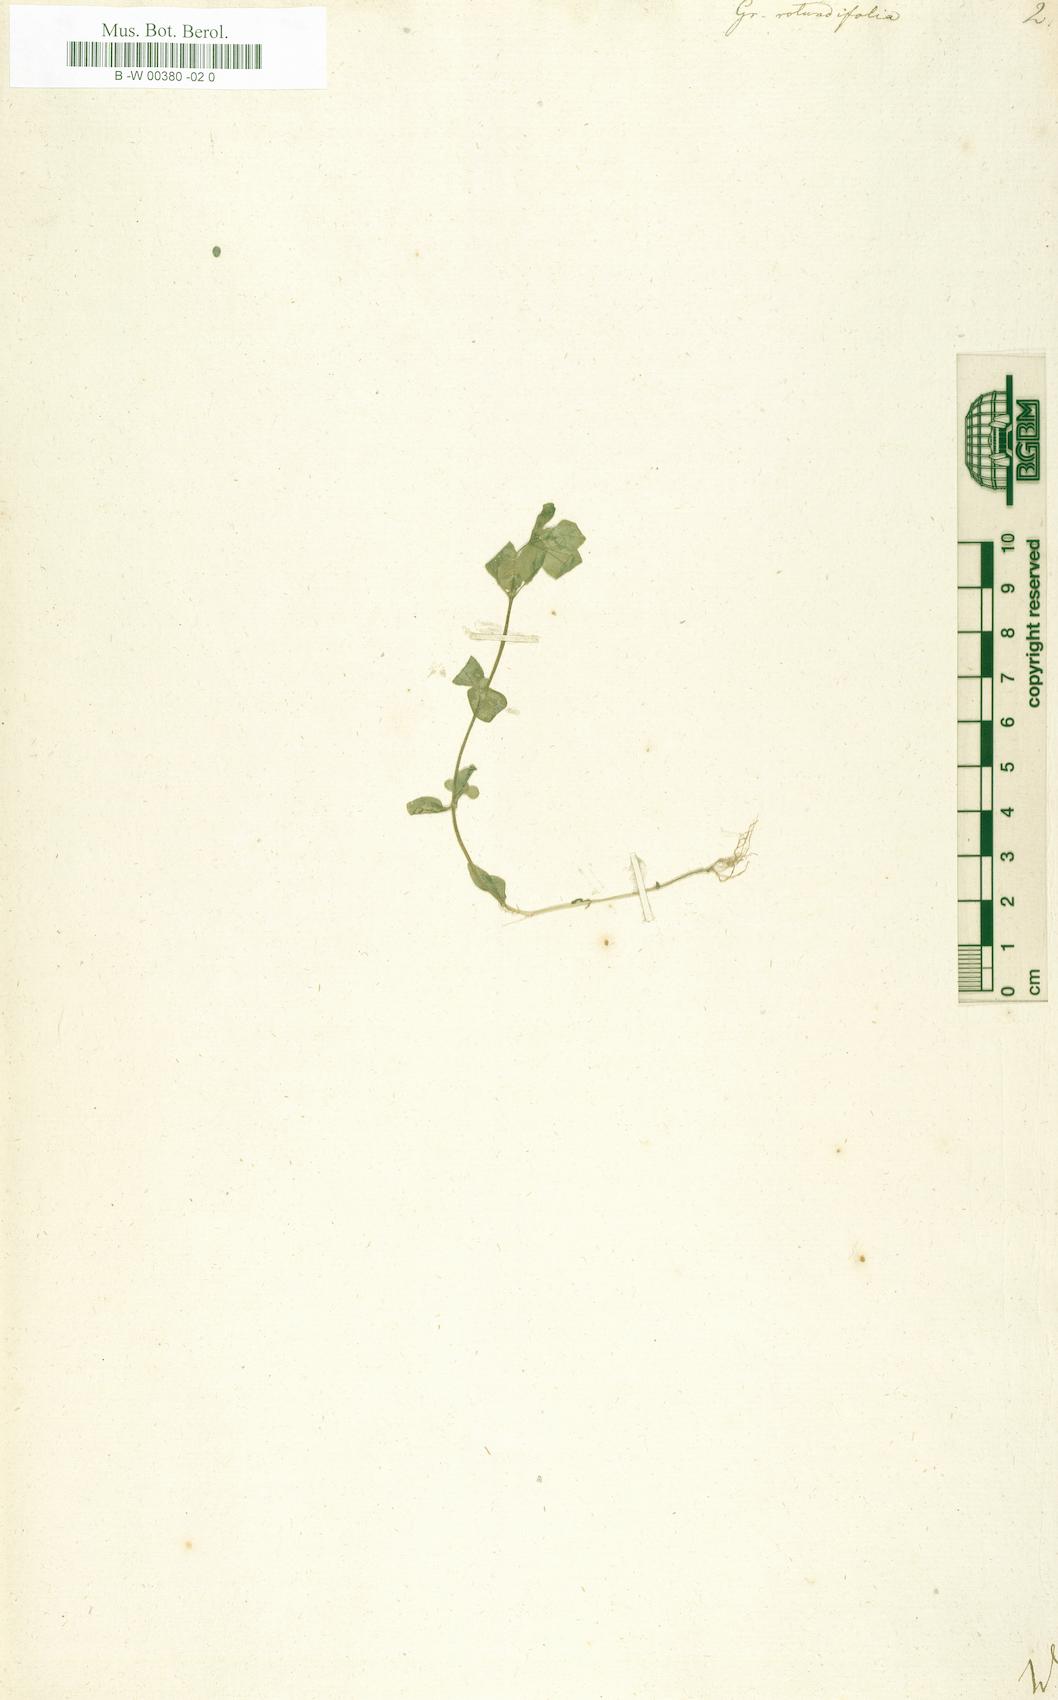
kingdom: Plantae
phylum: Tracheophyta
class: Magnoliopsida
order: Lamiales
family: Linderniaceae
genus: Lindernia
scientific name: Lindernia rotundifolia
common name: Baby’s tears
